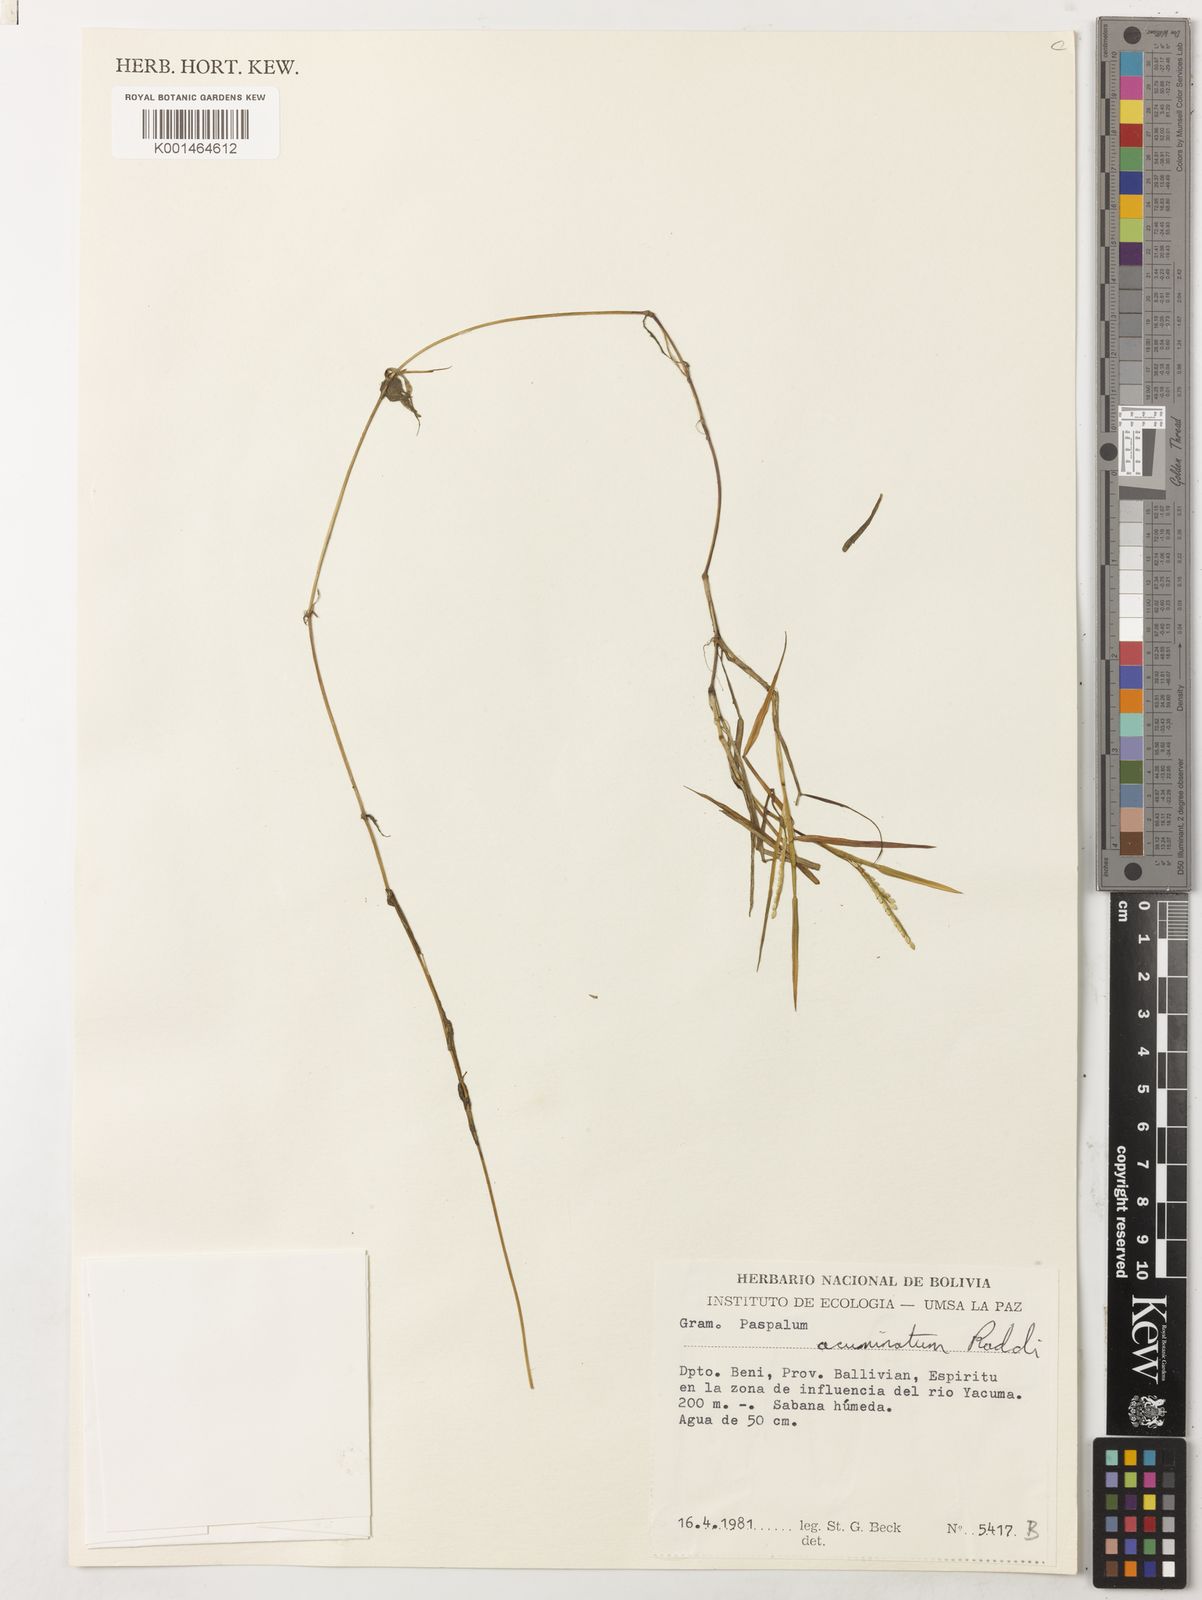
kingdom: Plantae
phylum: Tracheophyta
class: Liliopsida
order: Poales
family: Poaceae
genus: Paspalum
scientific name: Paspalum morichalense
